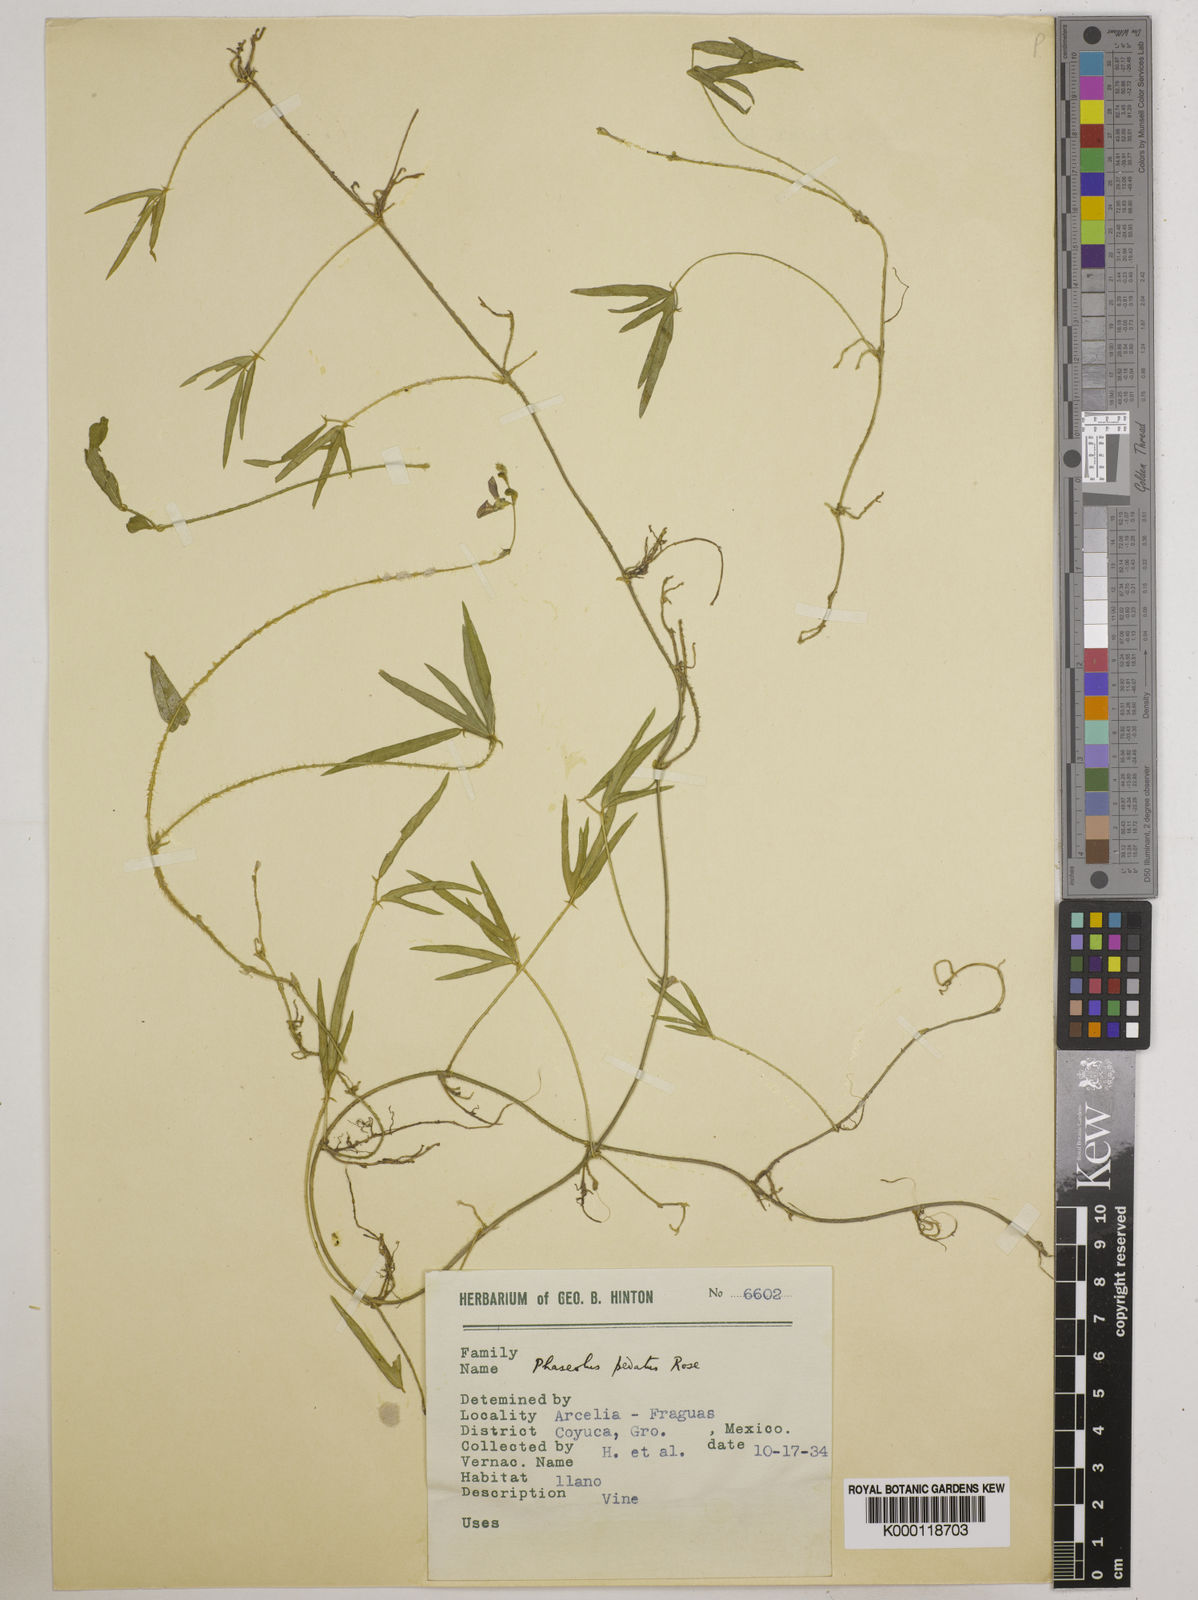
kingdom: Plantae
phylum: Tracheophyta
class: Magnoliopsida
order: Fabales
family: Fabaceae
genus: Macroptilium
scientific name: Macroptilium pedatum
